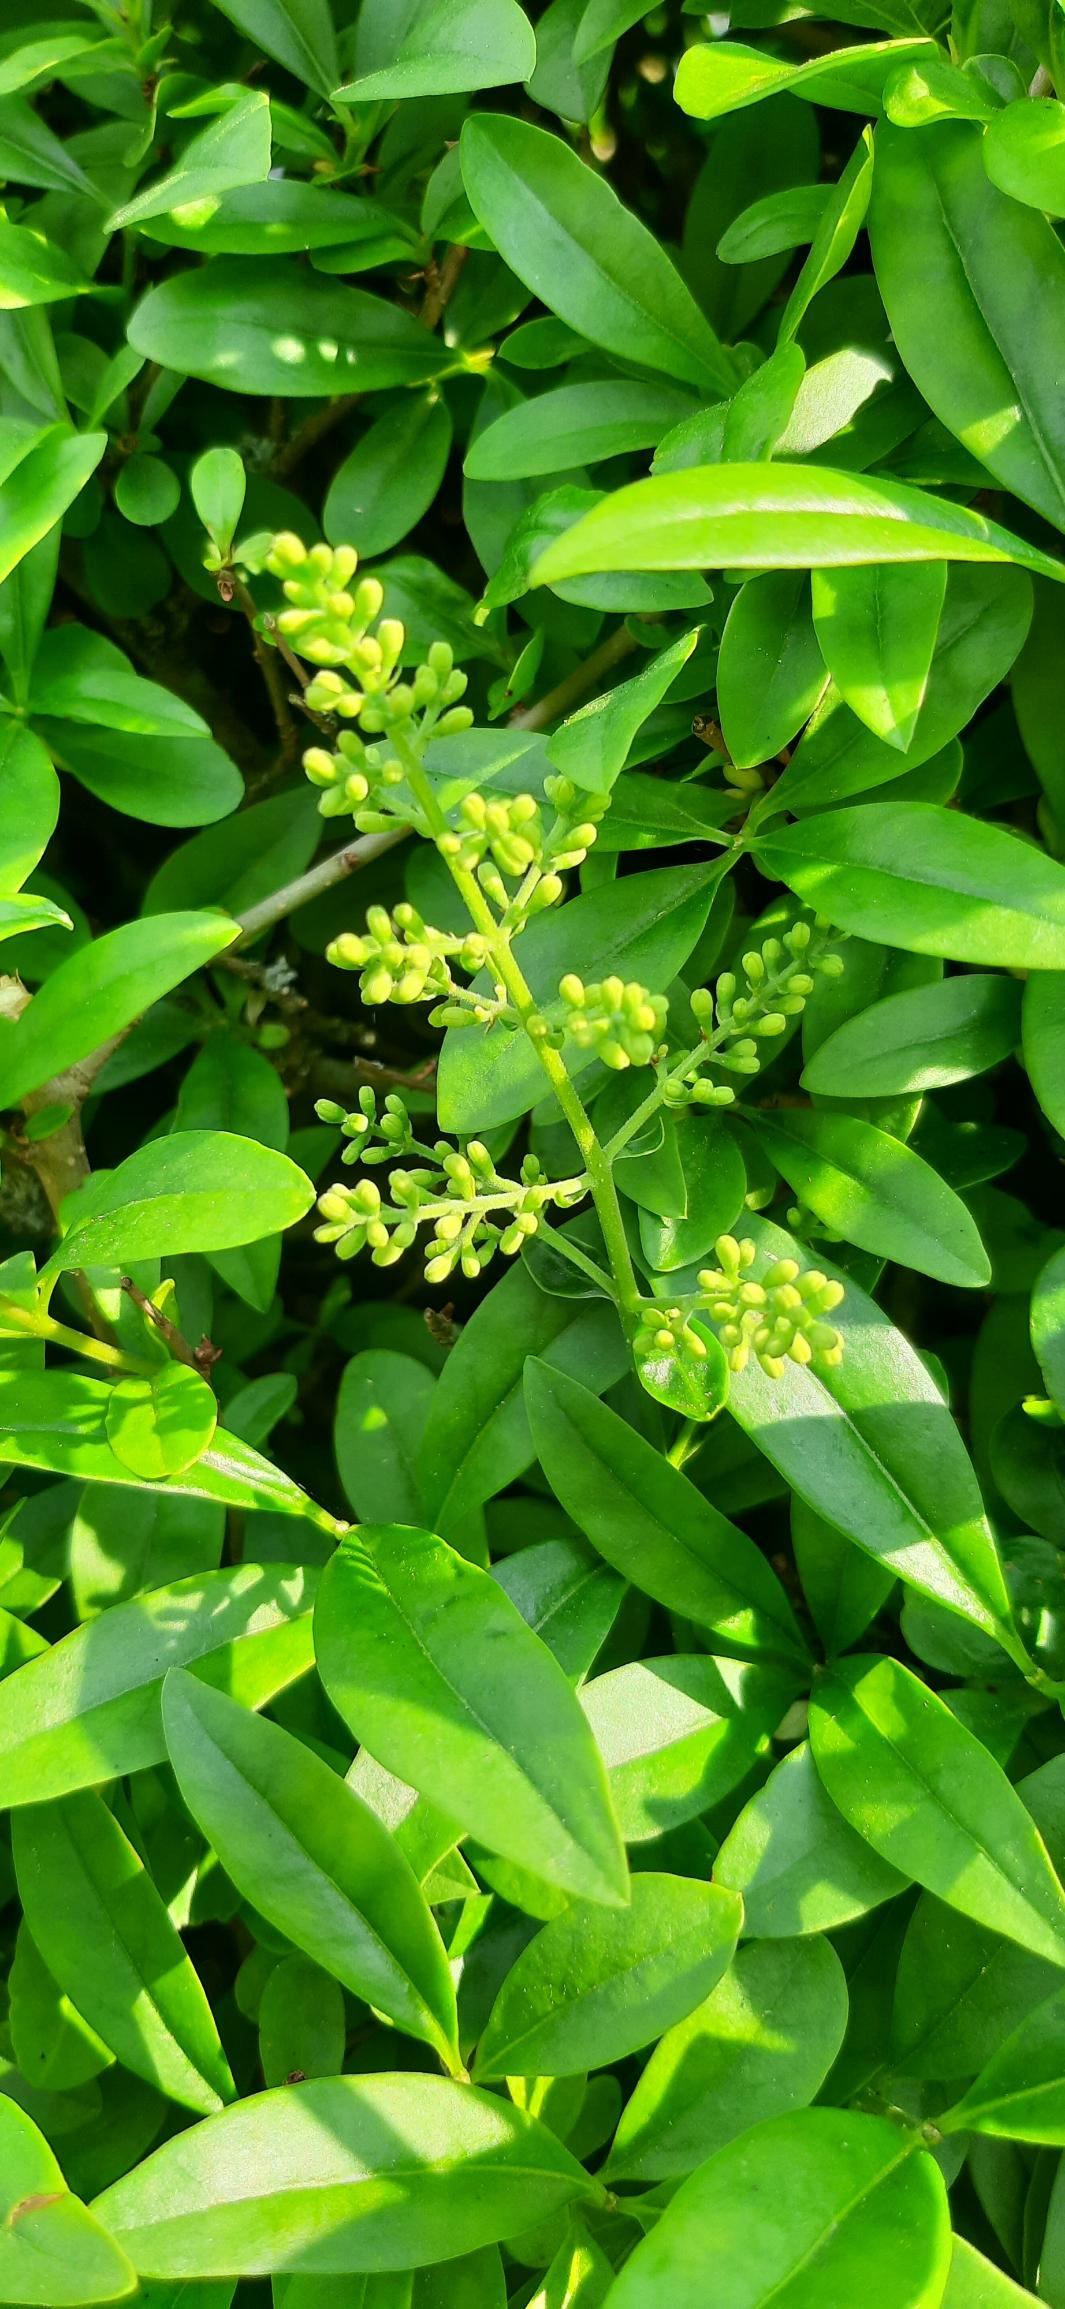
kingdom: Plantae
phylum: Tracheophyta
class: Magnoliopsida
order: Lamiales
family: Oleaceae
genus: Ligustrum
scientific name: Ligustrum vulgare
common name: Liguster
